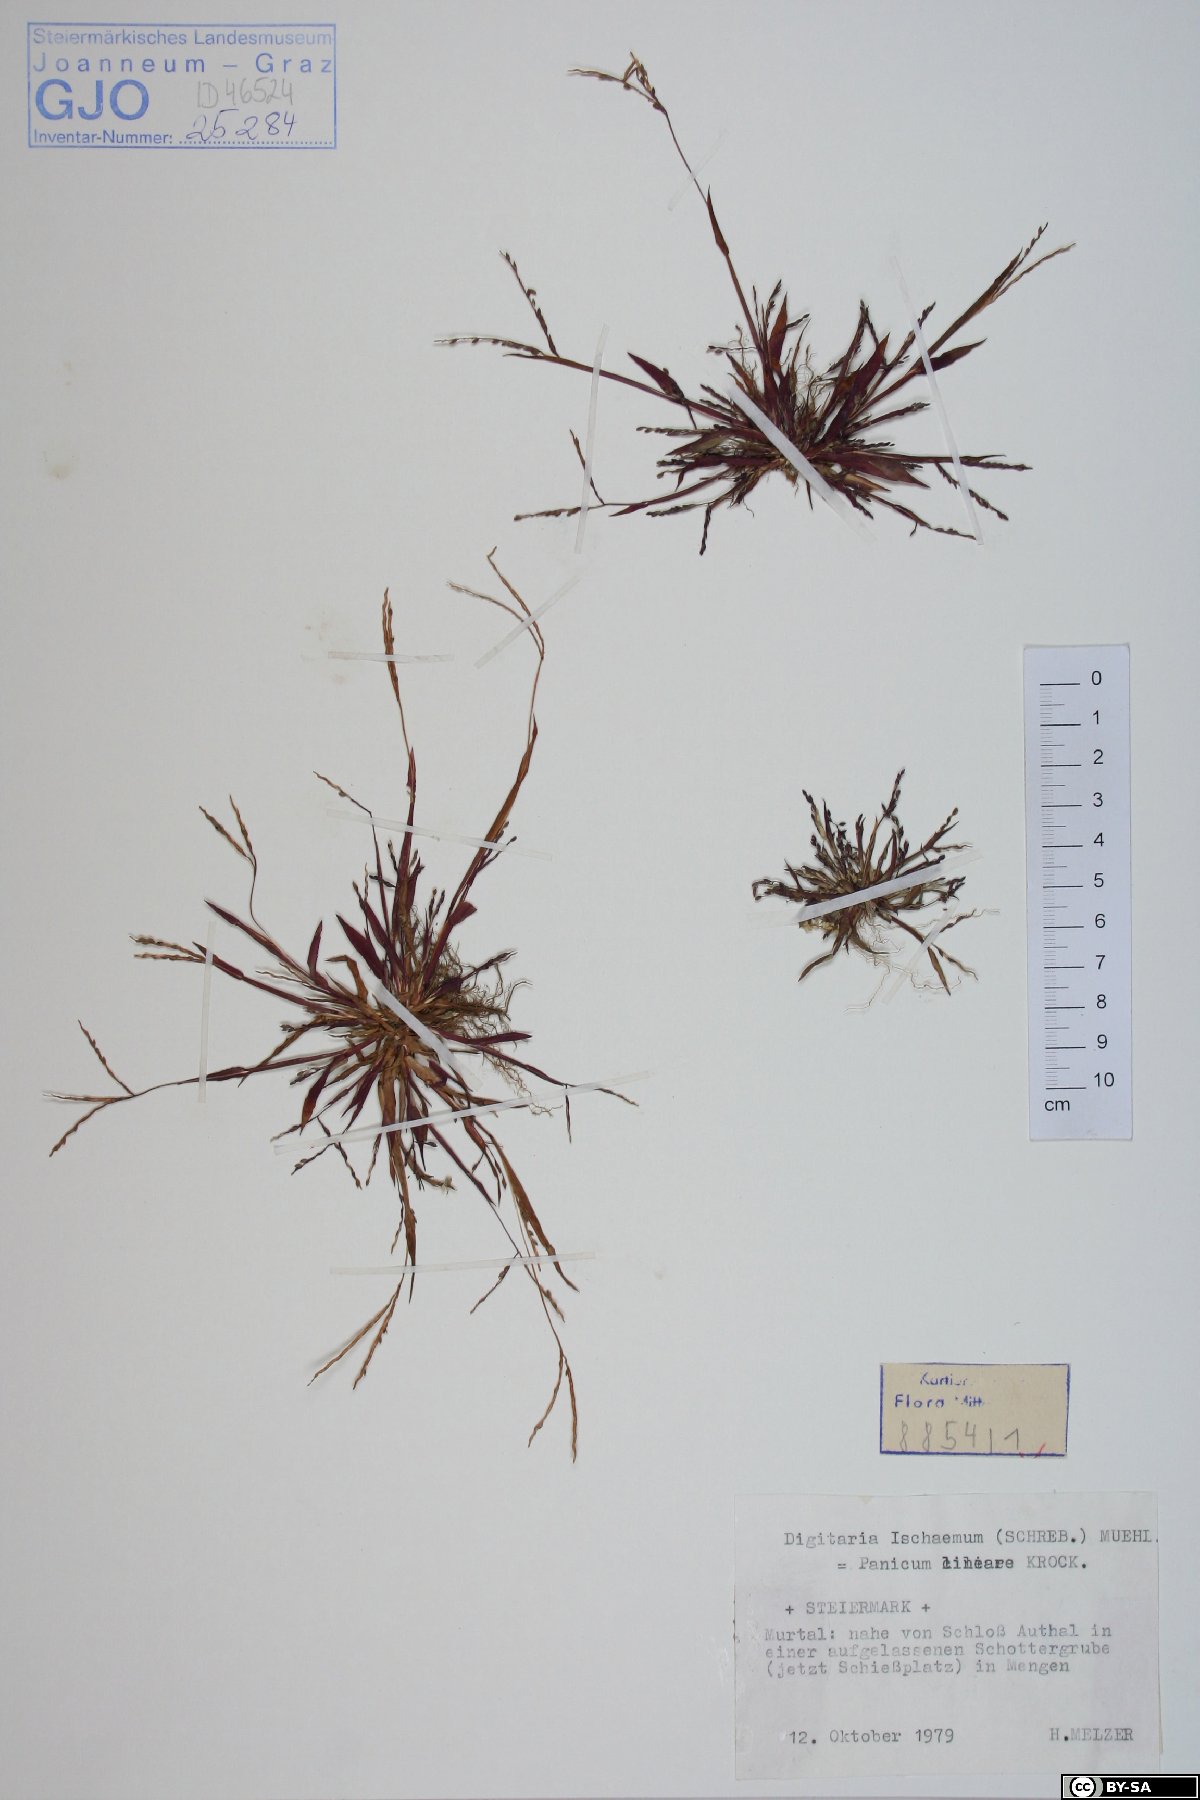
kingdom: Plantae
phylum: Tracheophyta
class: Liliopsida
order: Poales
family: Poaceae
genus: Digitaria
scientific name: Digitaria ischaemum
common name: Smooth crabgrass
